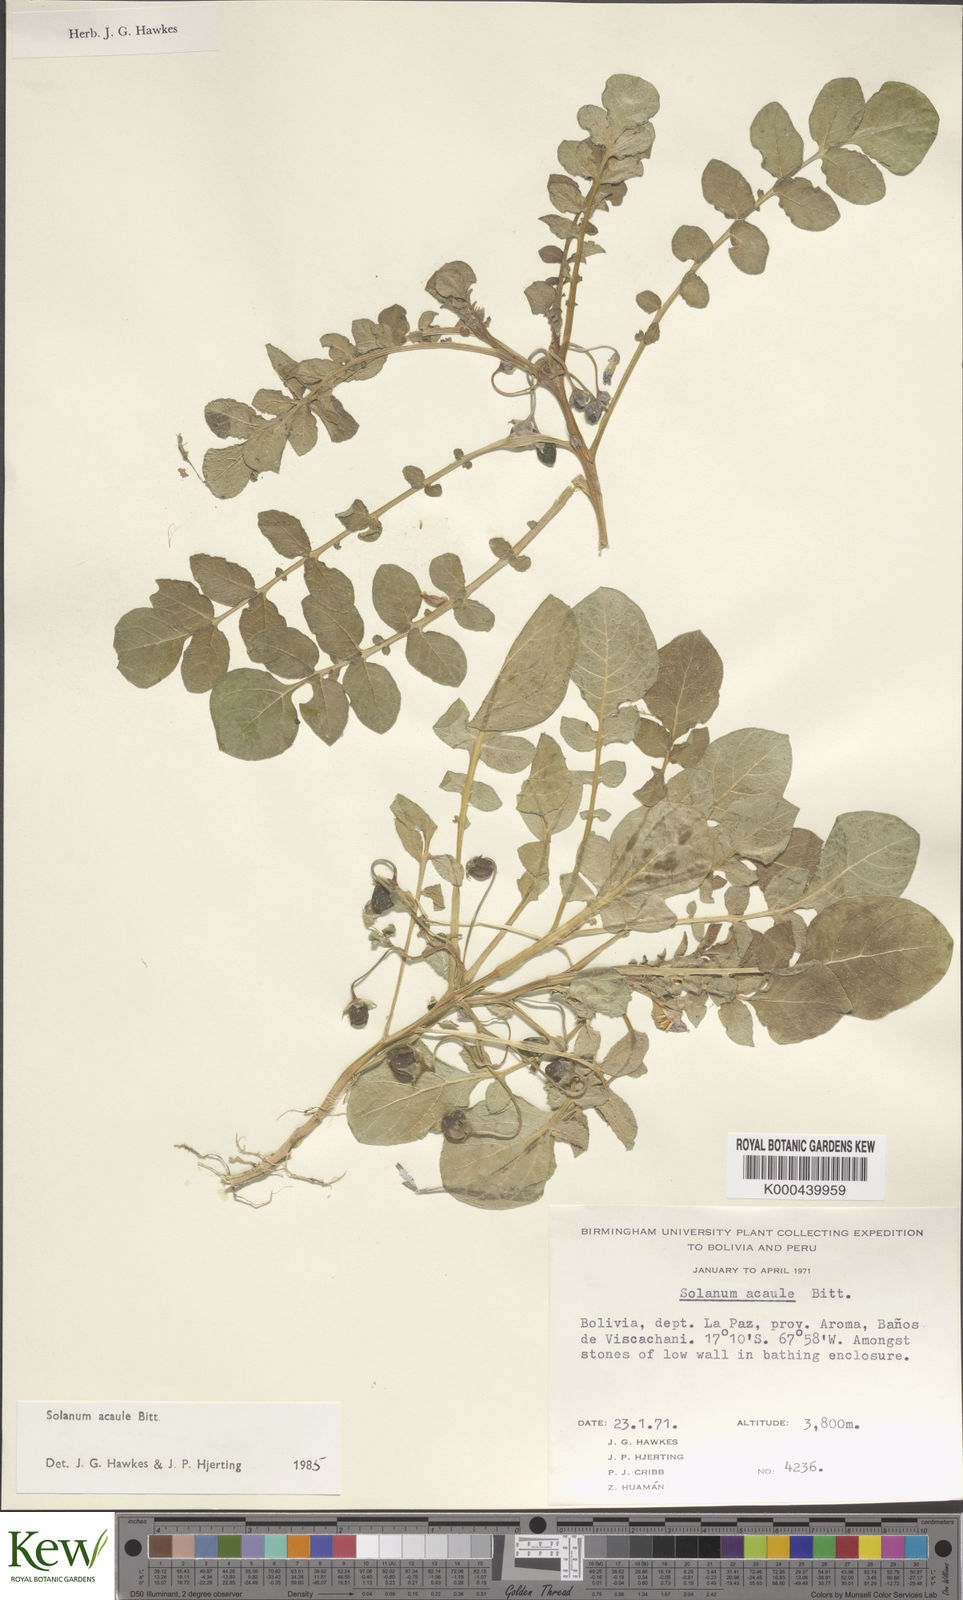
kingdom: Plantae
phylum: Tracheophyta
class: Magnoliopsida
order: Solanales
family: Solanaceae
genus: Solanum
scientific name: Solanum acaule
